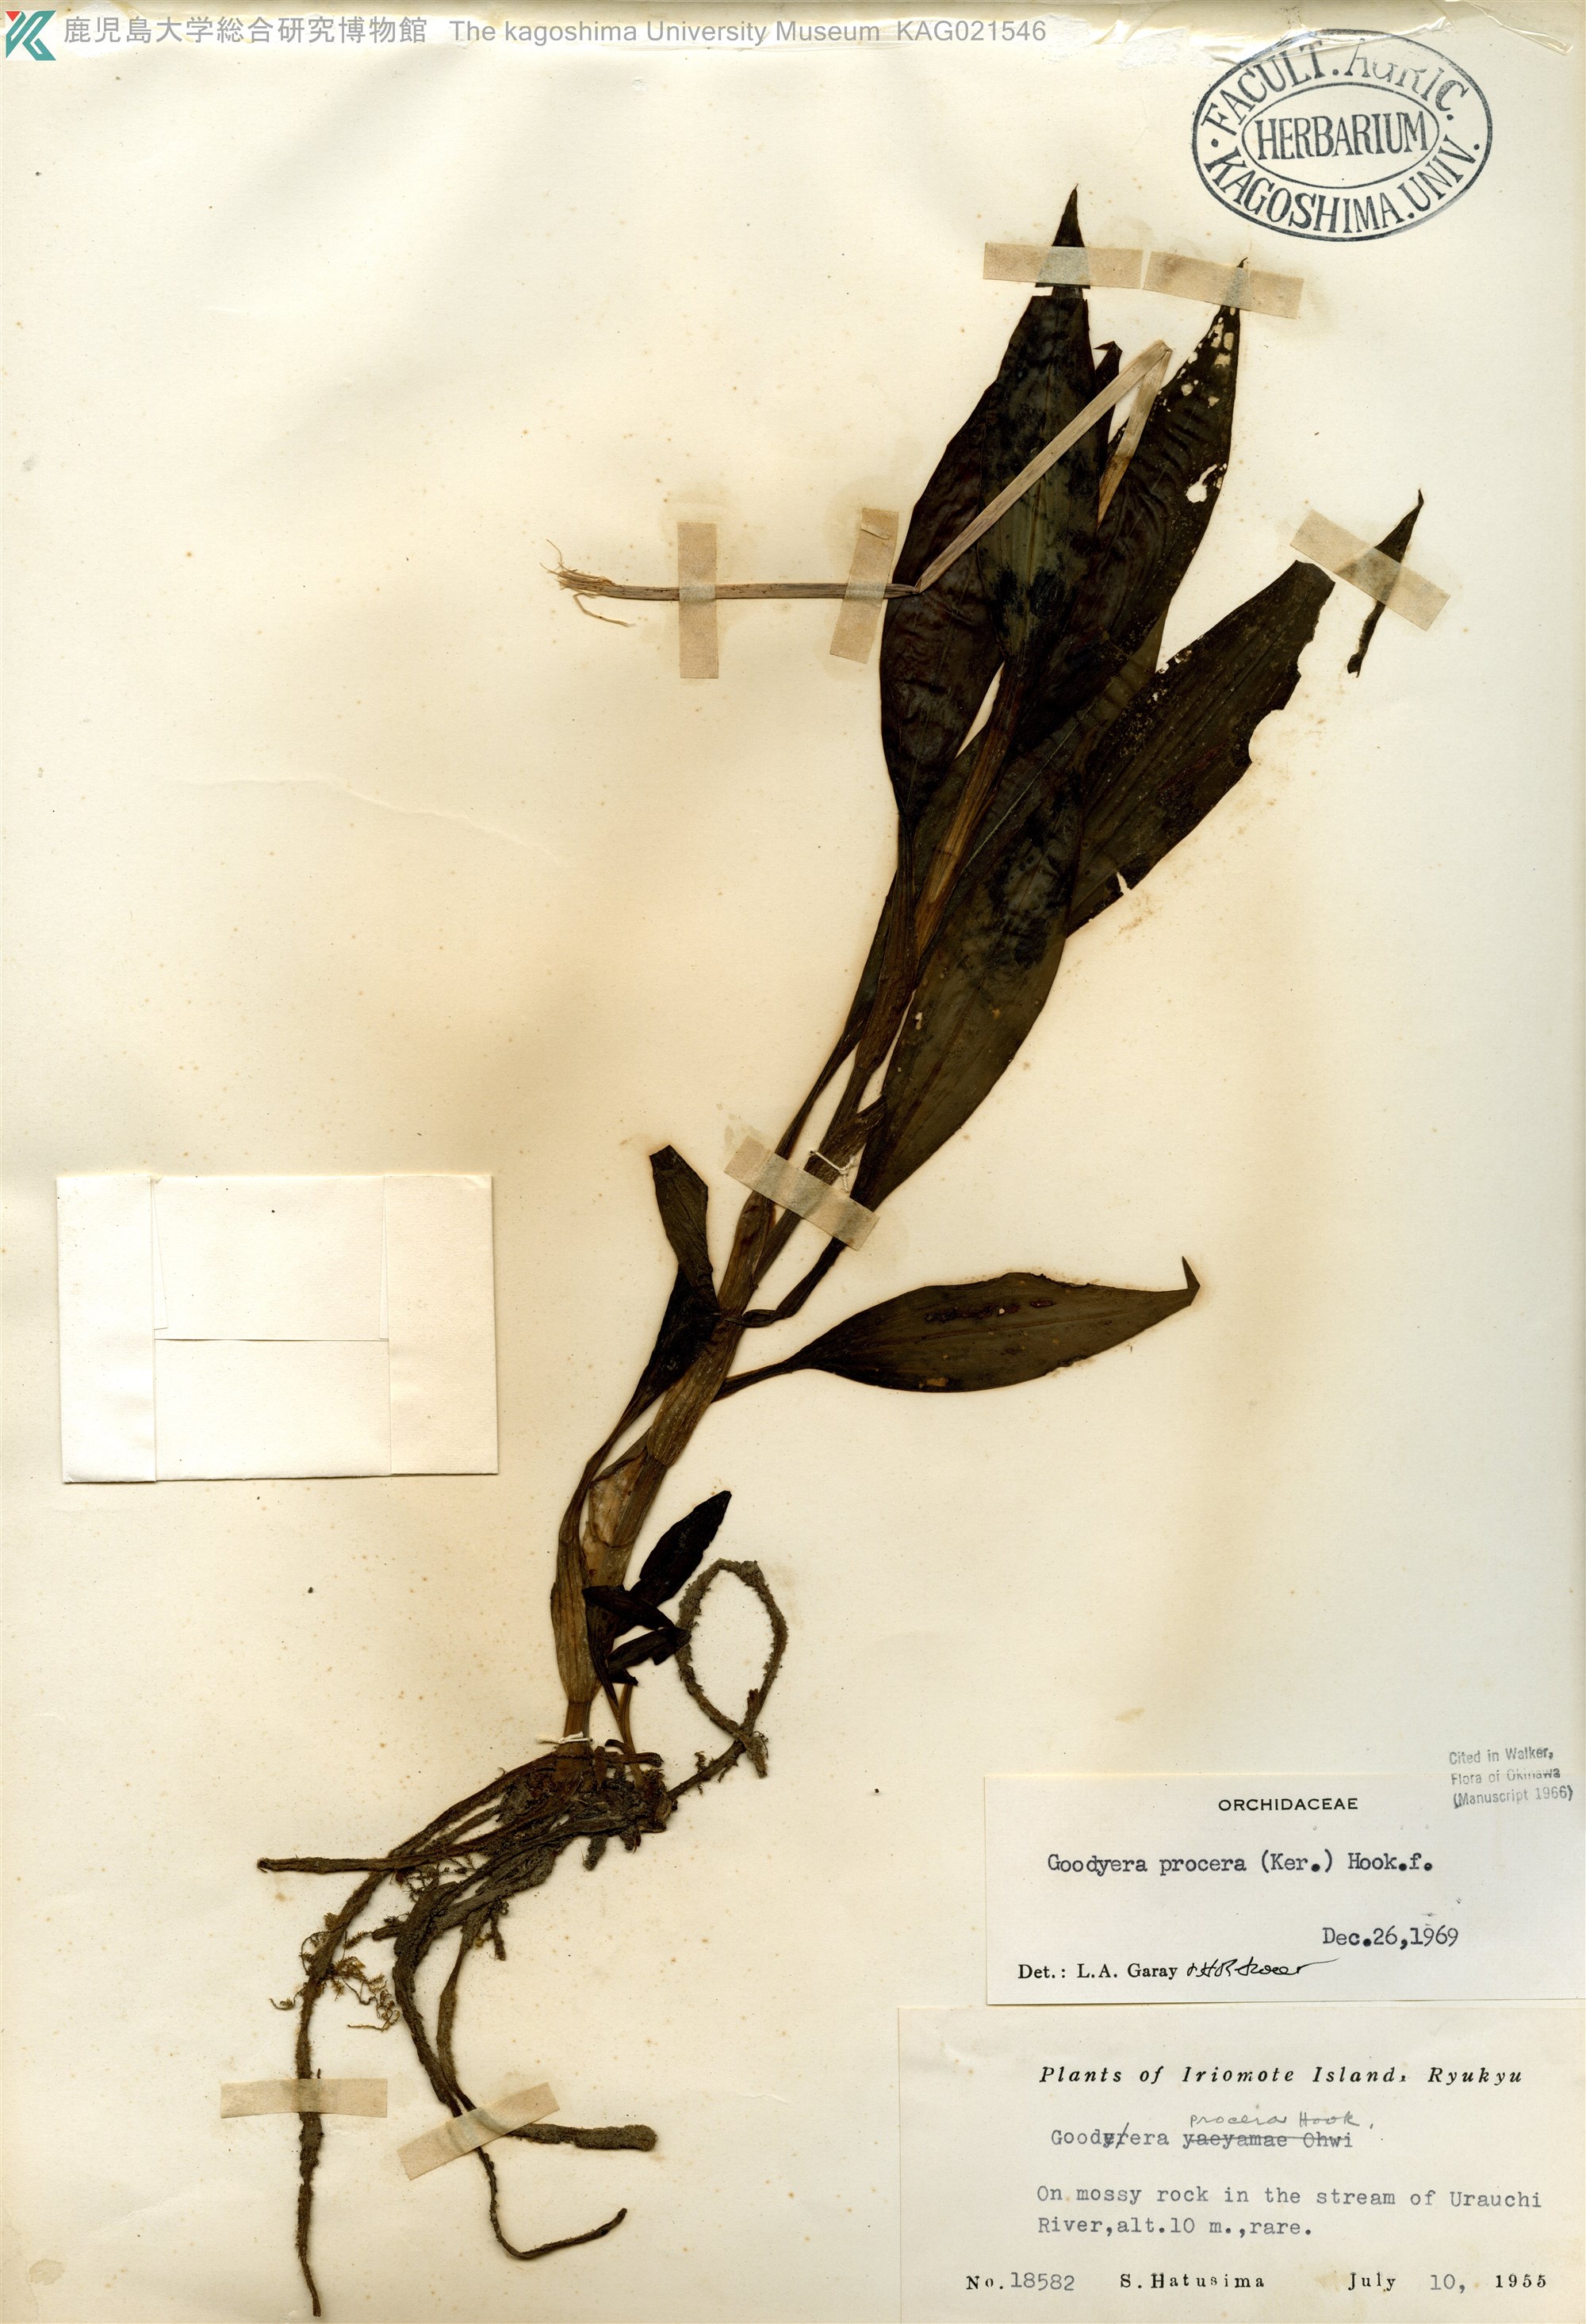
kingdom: Plantae
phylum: Tracheophyta
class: Liliopsida
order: Asparagales
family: Orchidaceae
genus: Goodyera
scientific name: Goodyera procera
